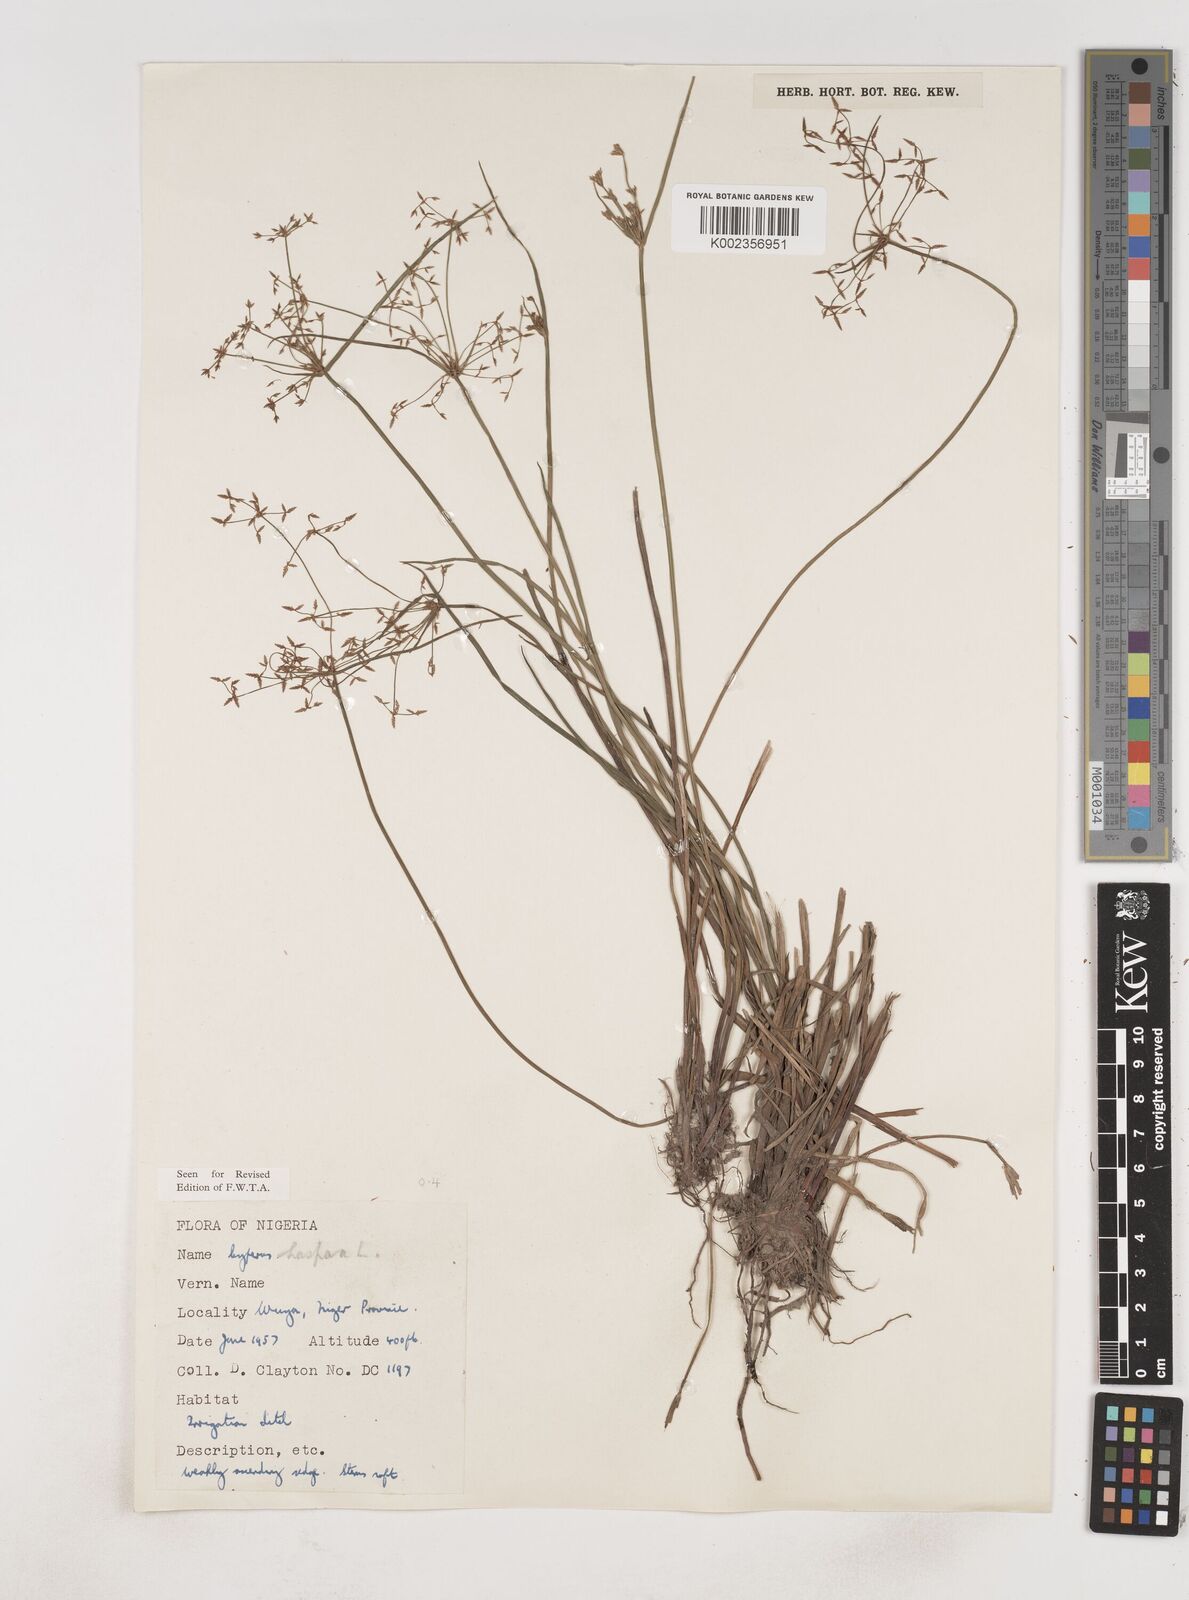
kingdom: Plantae
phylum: Tracheophyta
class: Liliopsida
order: Poales
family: Cyperaceae
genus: Cyperus
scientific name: Cyperus haspan
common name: Haspan flatsedge
